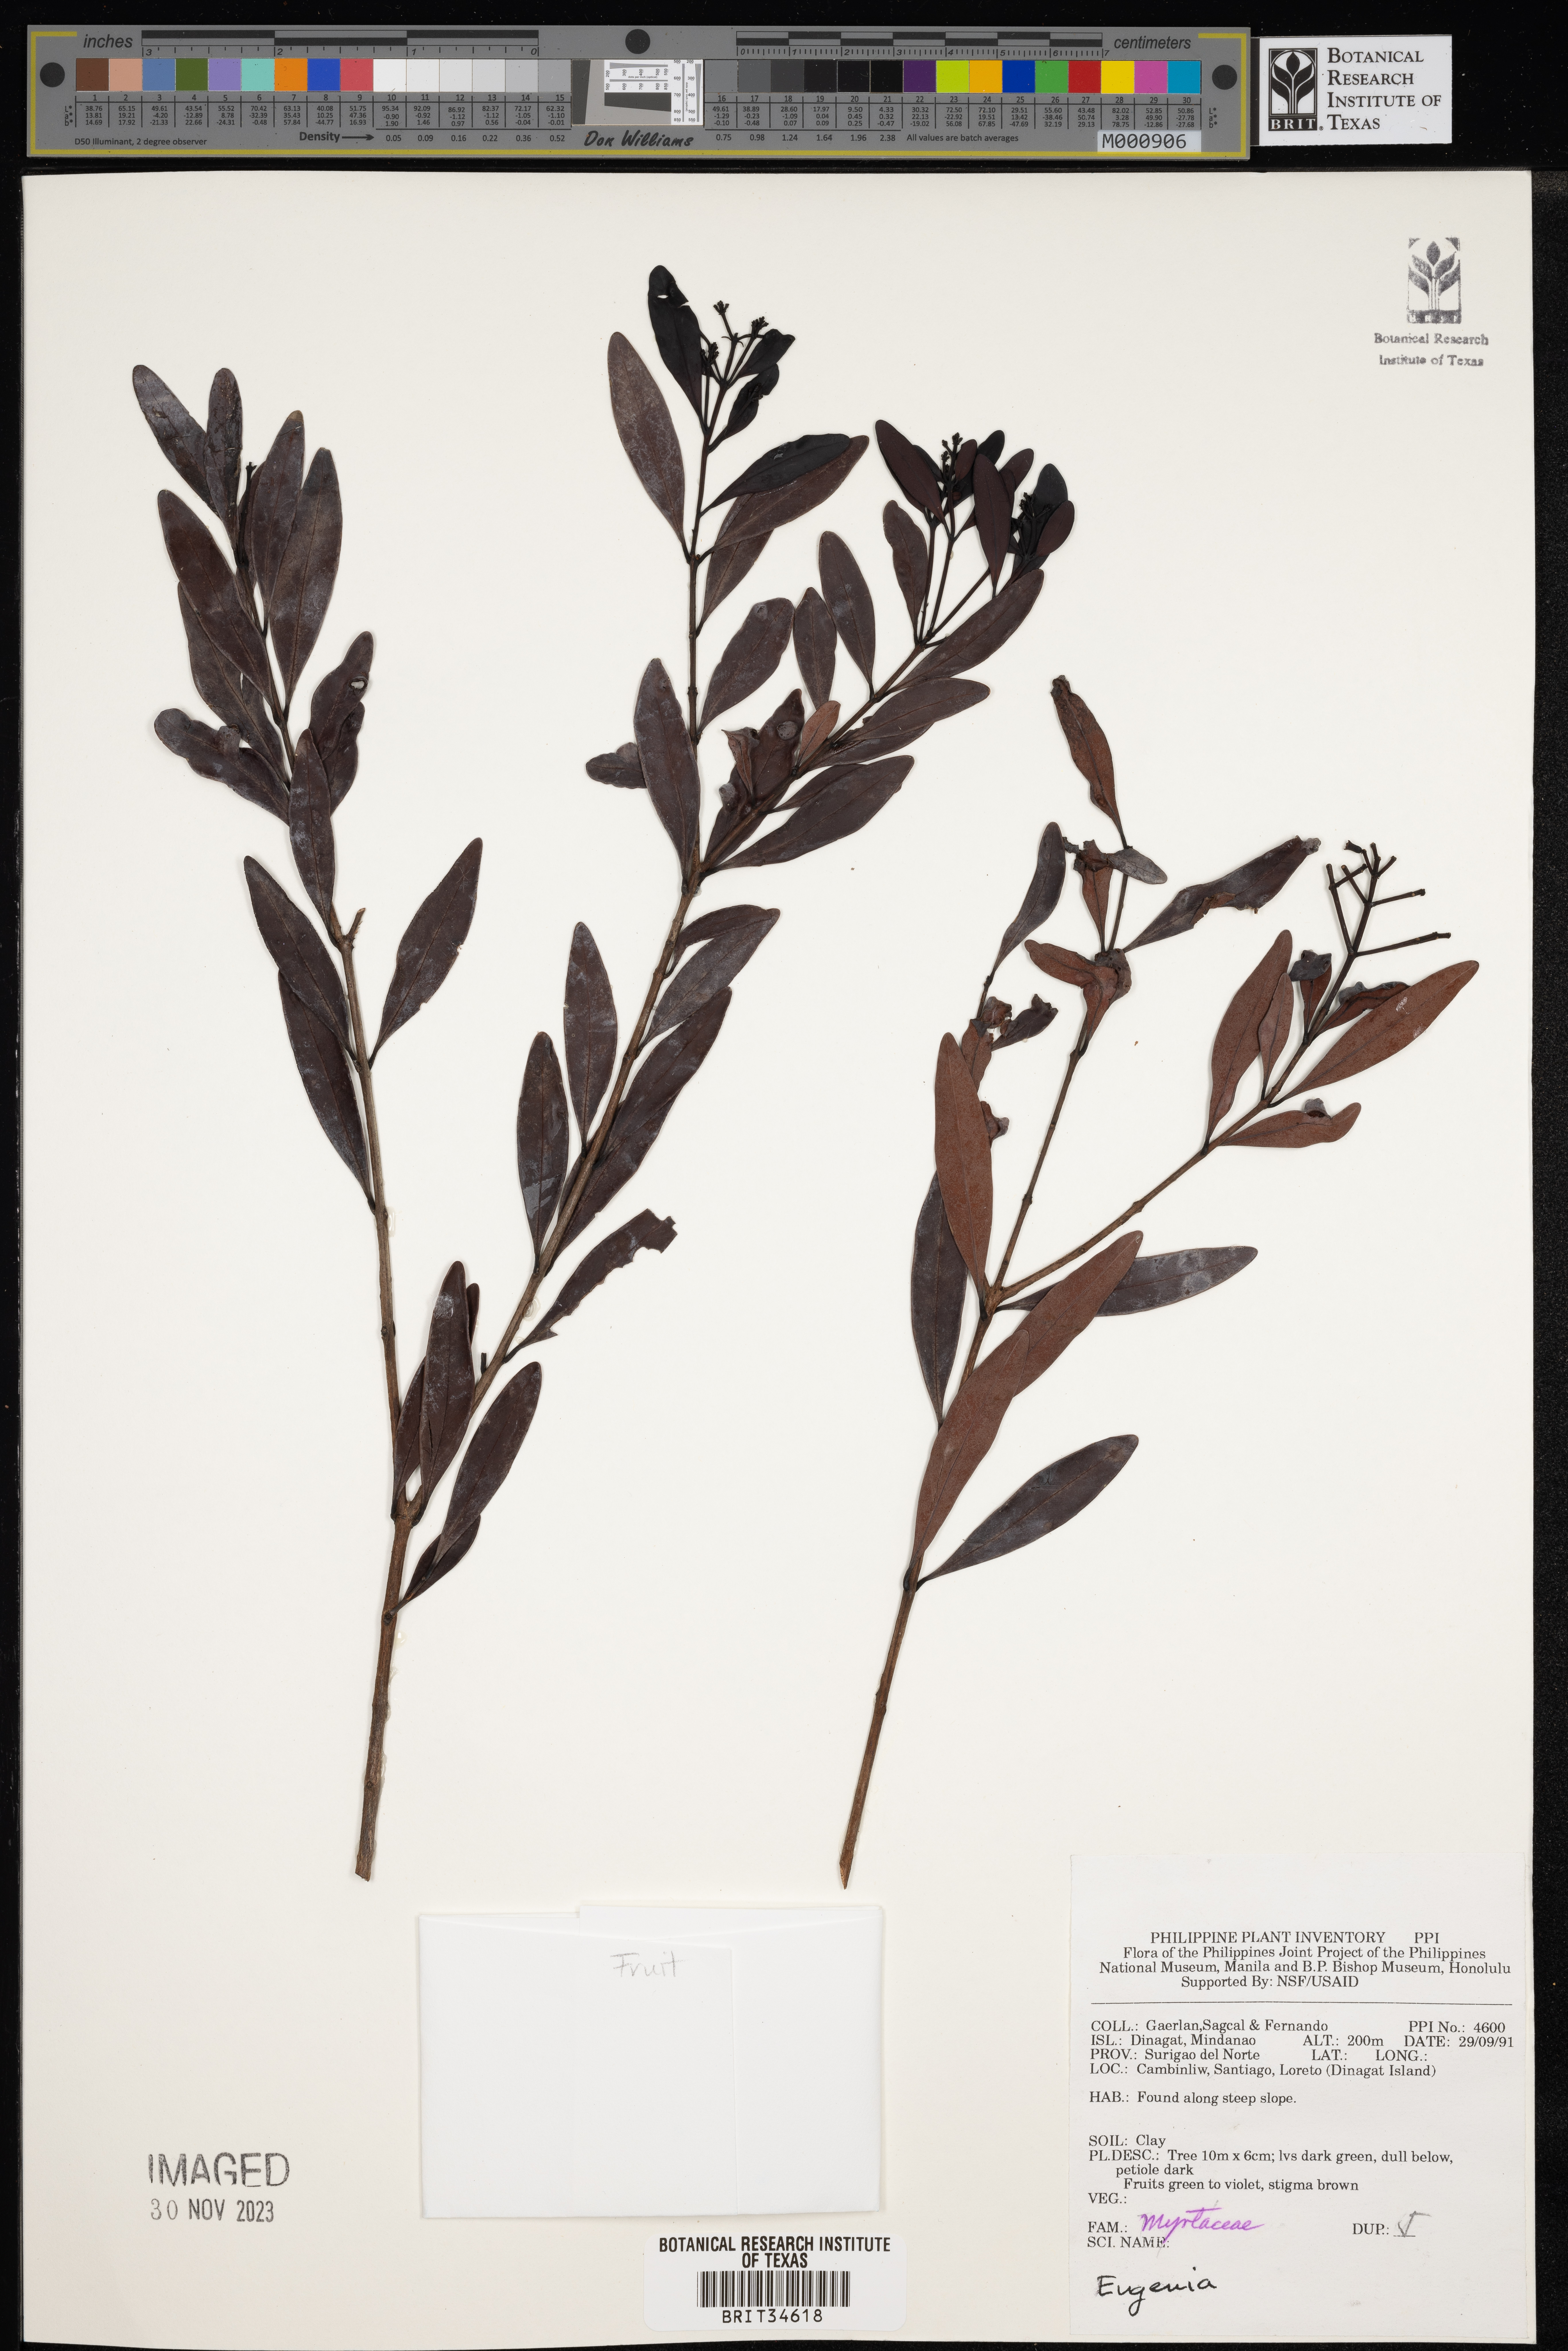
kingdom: Plantae
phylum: Tracheophyta
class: Magnoliopsida
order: Myrtales
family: Myrtaceae
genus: Eugenia
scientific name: Eugenia
